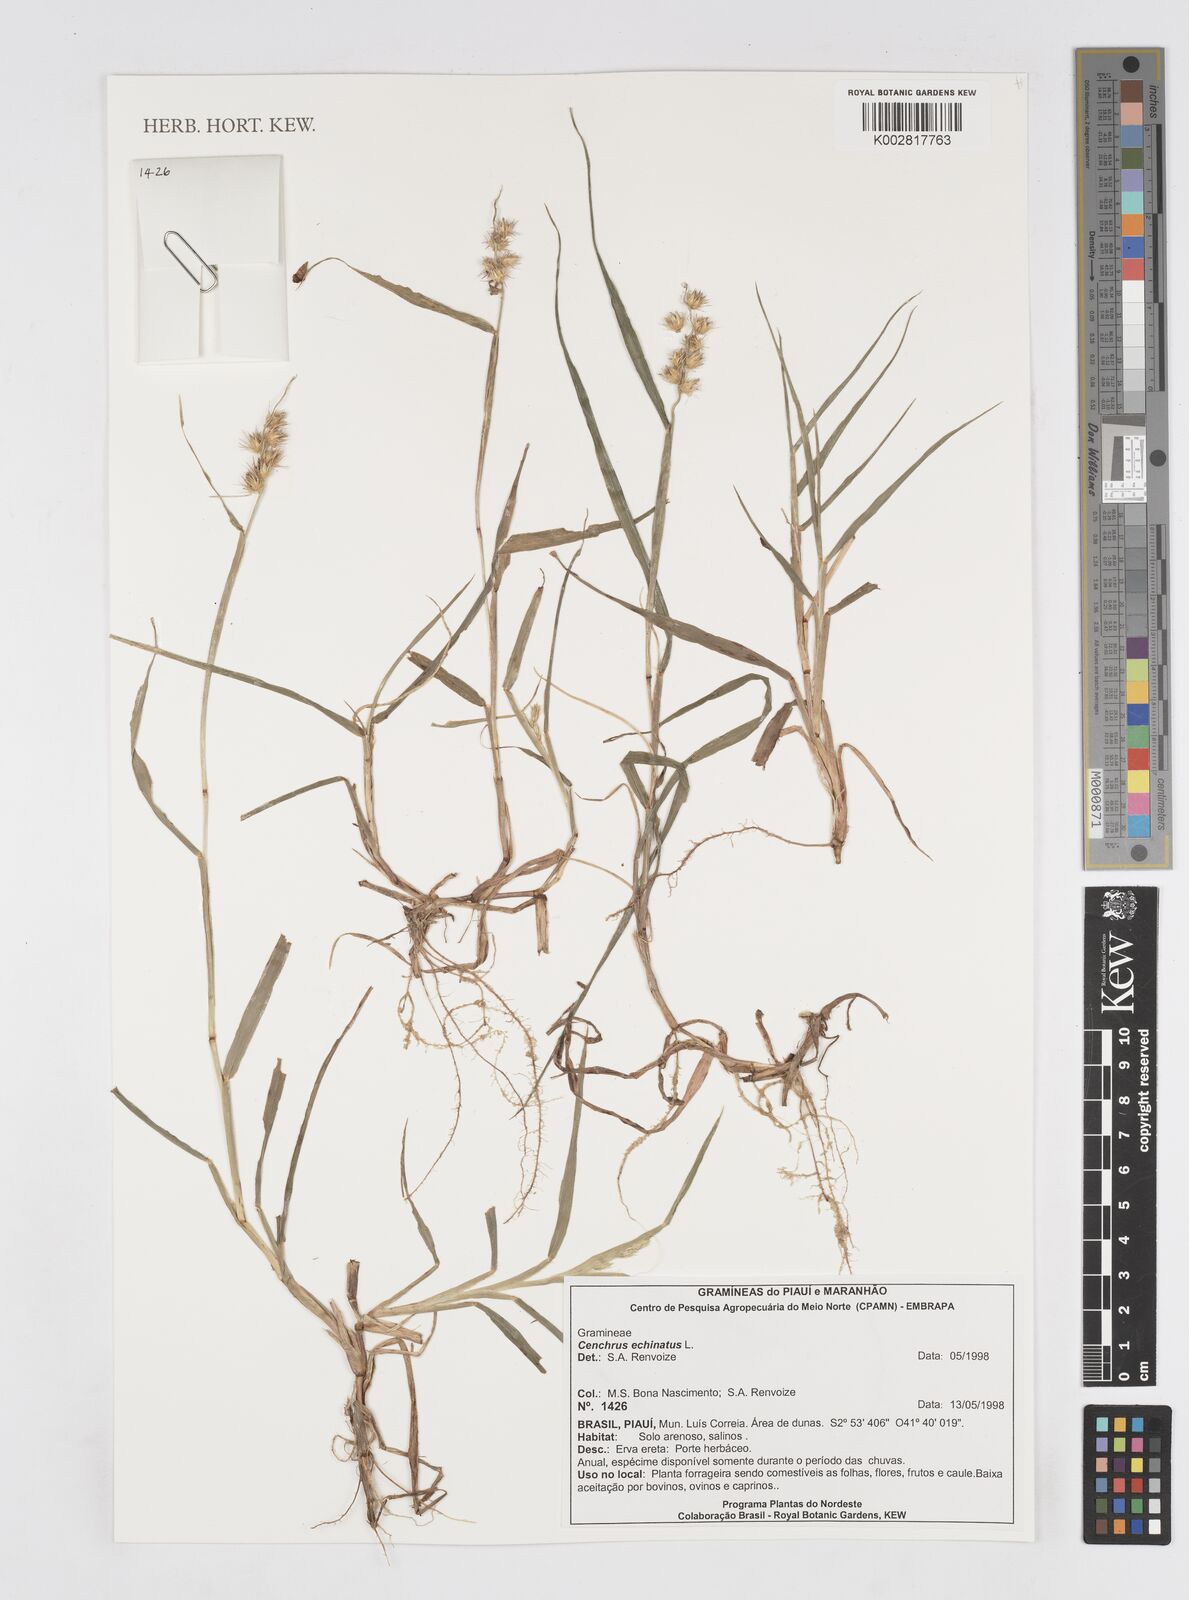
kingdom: Plantae
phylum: Tracheophyta
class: Liliopsida
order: Poales
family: Poaceae
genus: Cenchrus
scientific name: Cenchrus
